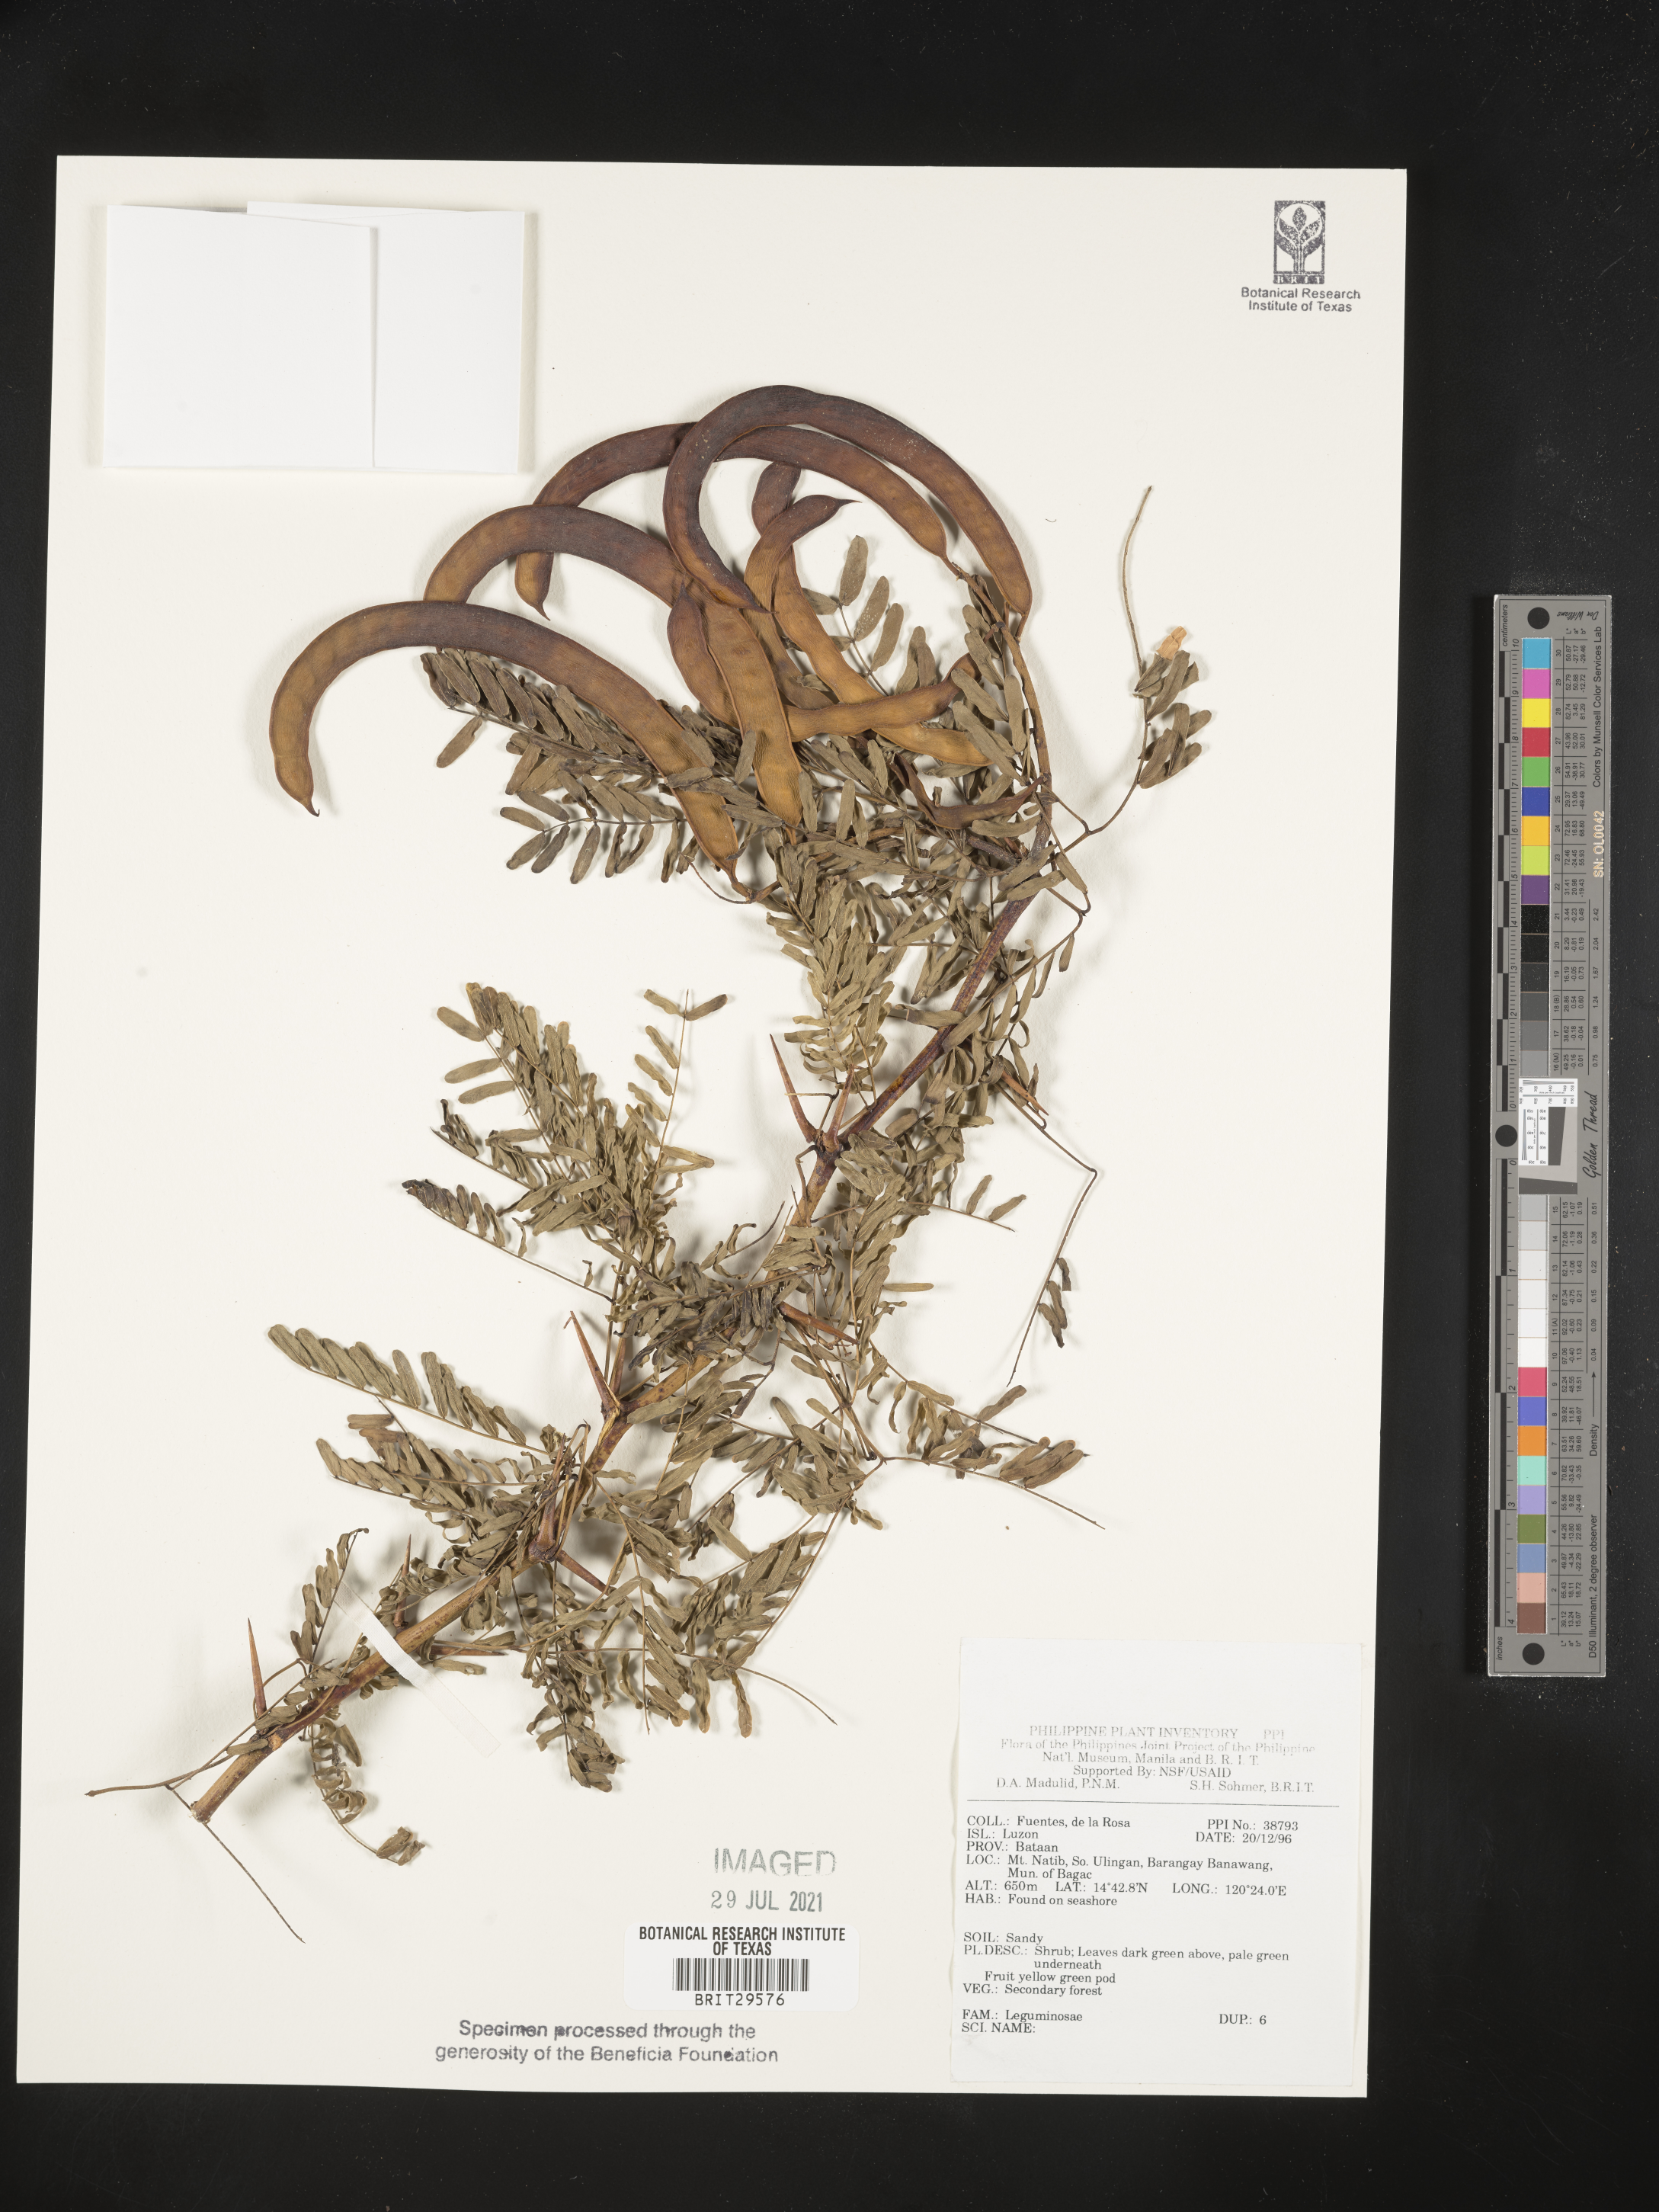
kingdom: Plantae
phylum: Tracheophyta
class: Magnoliopsida
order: Fabales
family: Fabaceae
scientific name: Fabaceae
